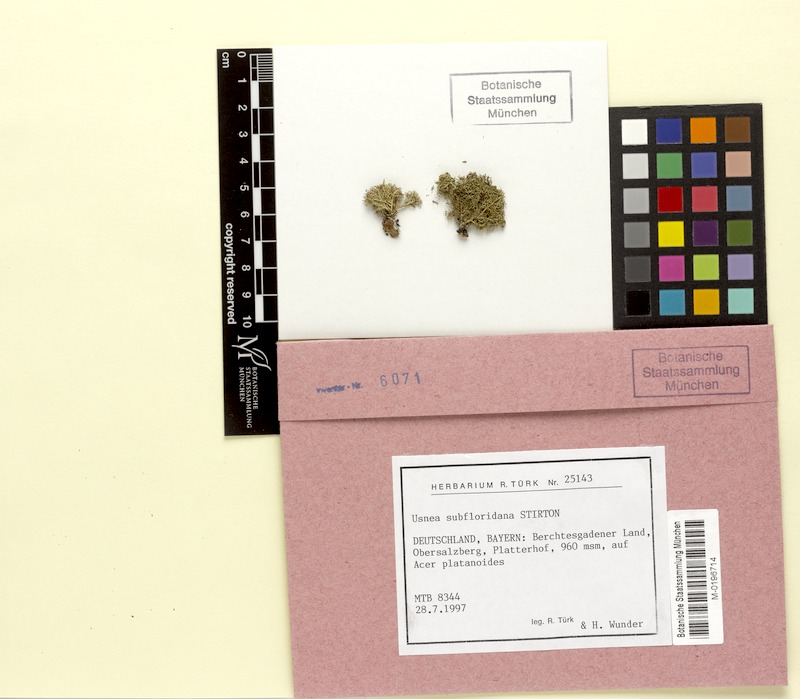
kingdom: Fungi
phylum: Ascomycota
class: Lecanoromycetes
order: Lecanorales
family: Parmeliaceae
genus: Usnea
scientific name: Usnea subfloridana
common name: Boreal beard lichen
